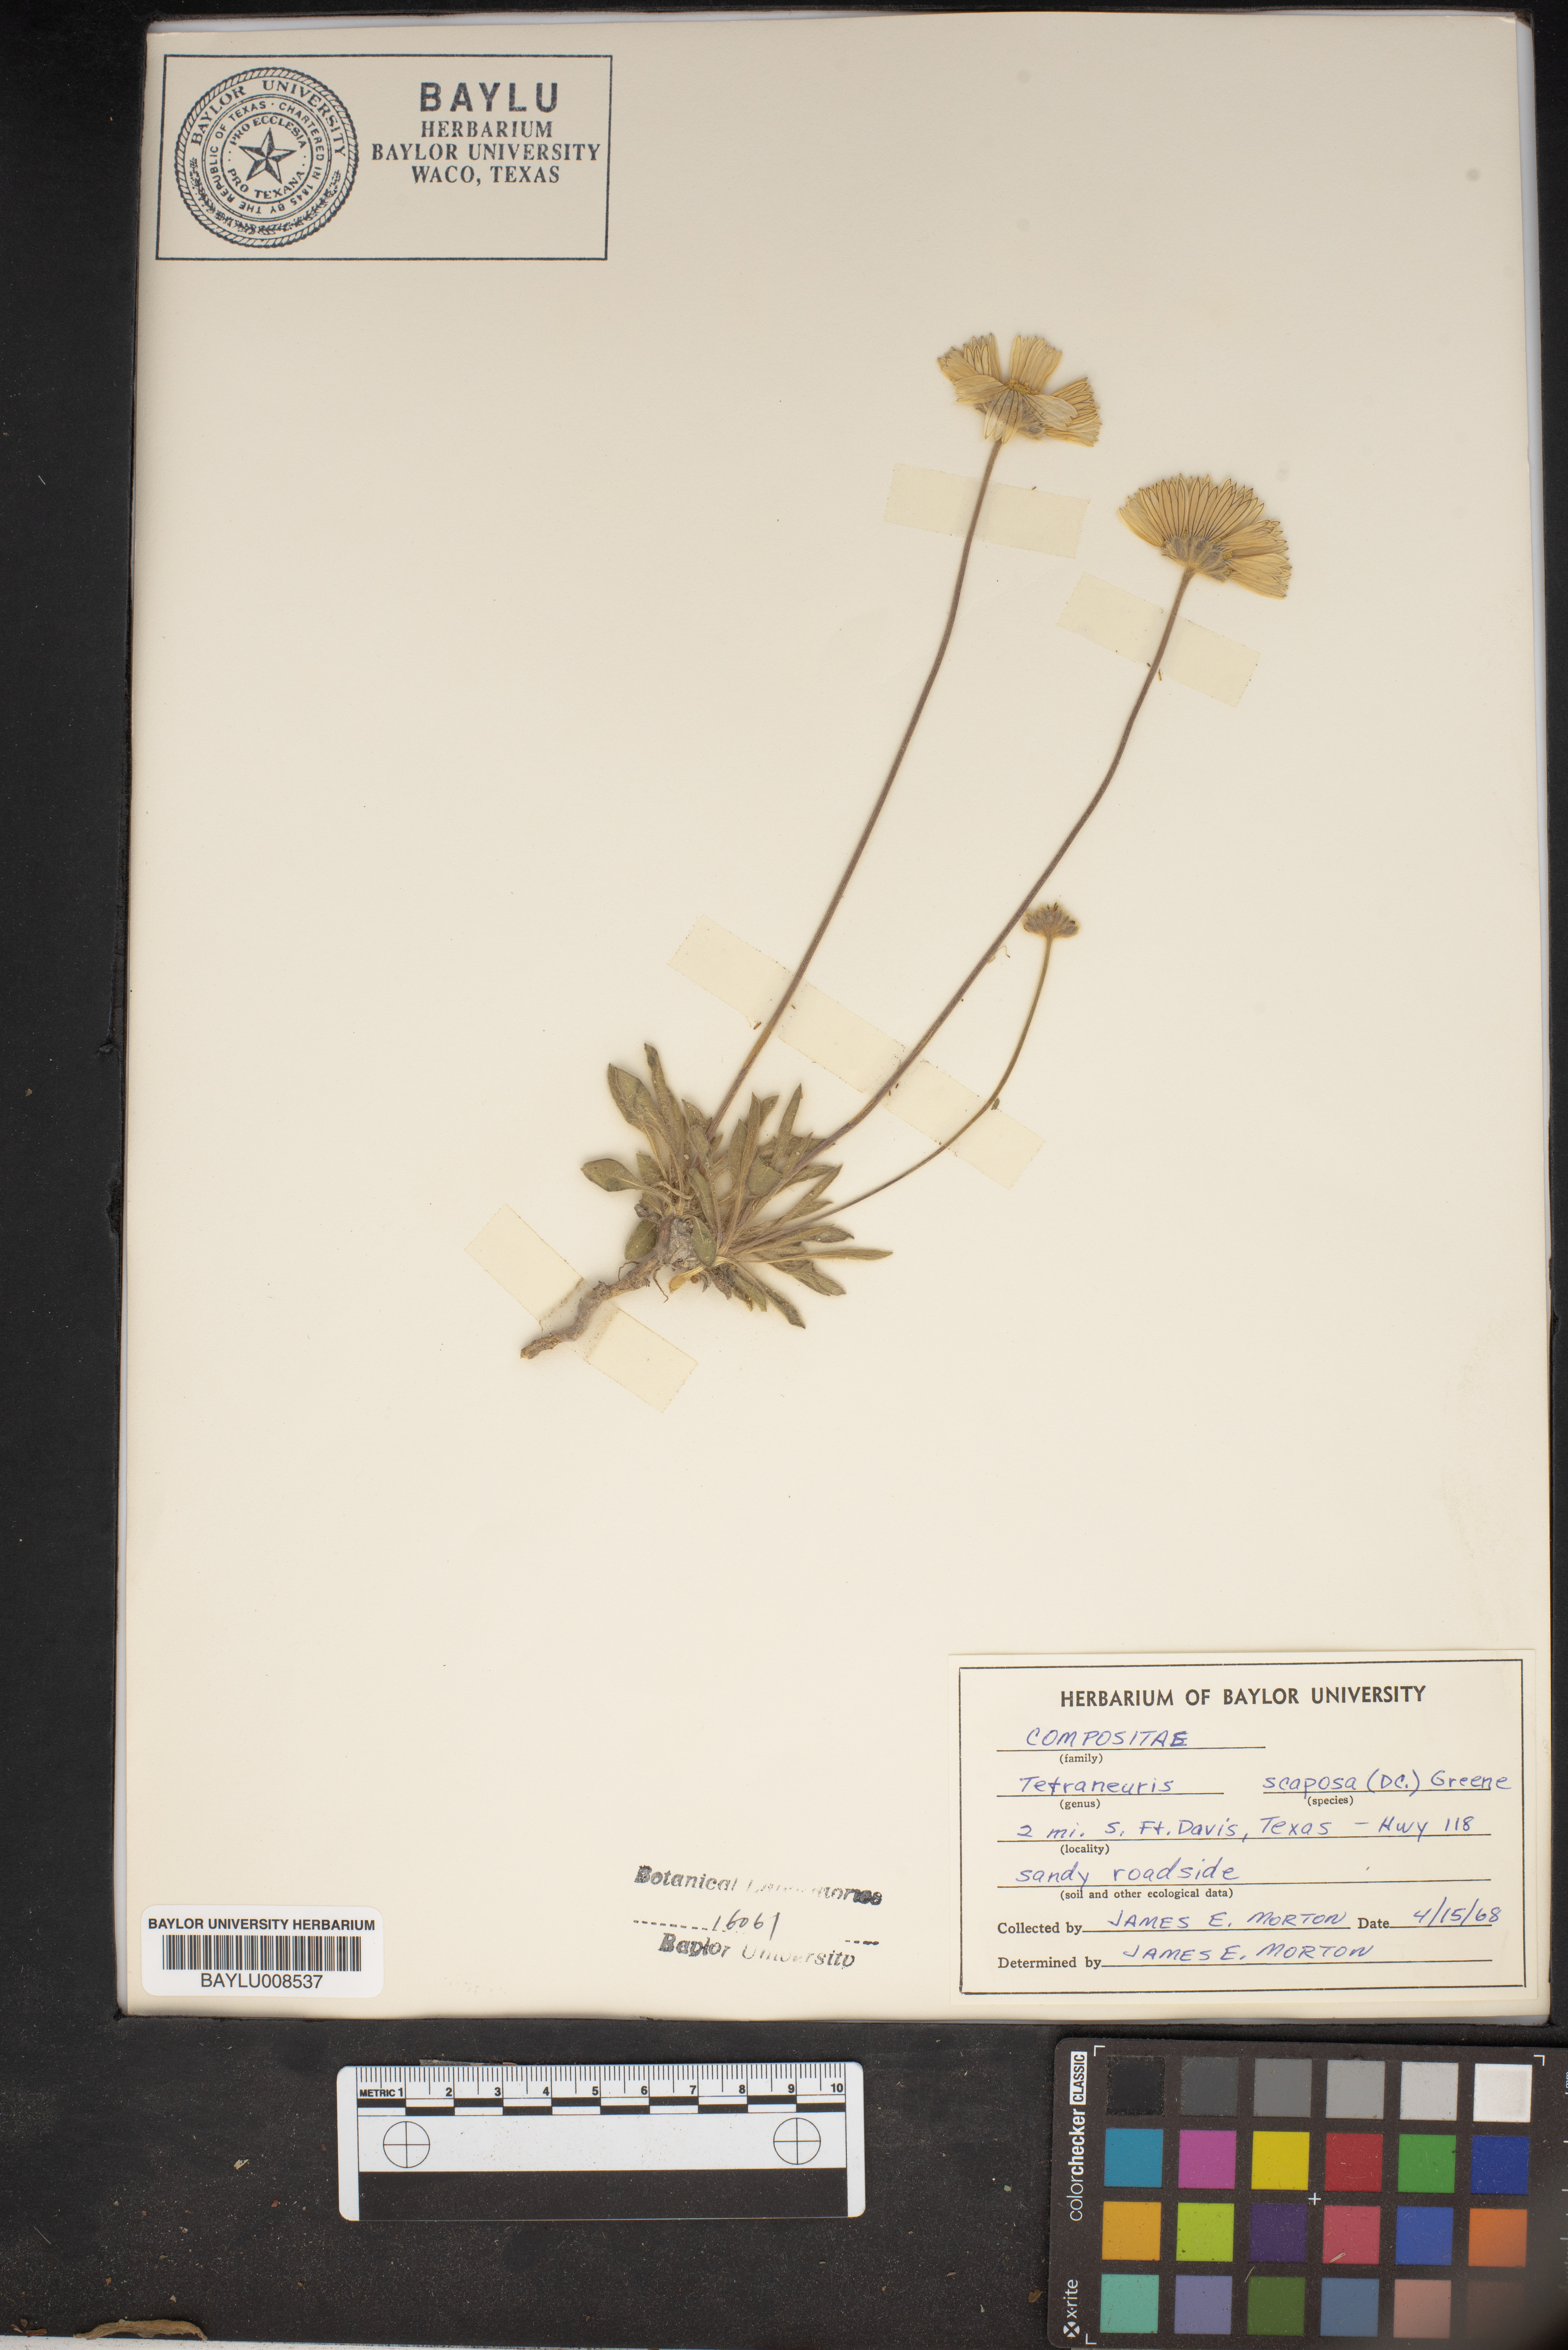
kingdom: Plantae
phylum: Tracheophyta
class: Magnoliopsida
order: Asterales
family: Asteraceae
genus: Tetraneuris
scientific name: Tetraneuris scaposa
